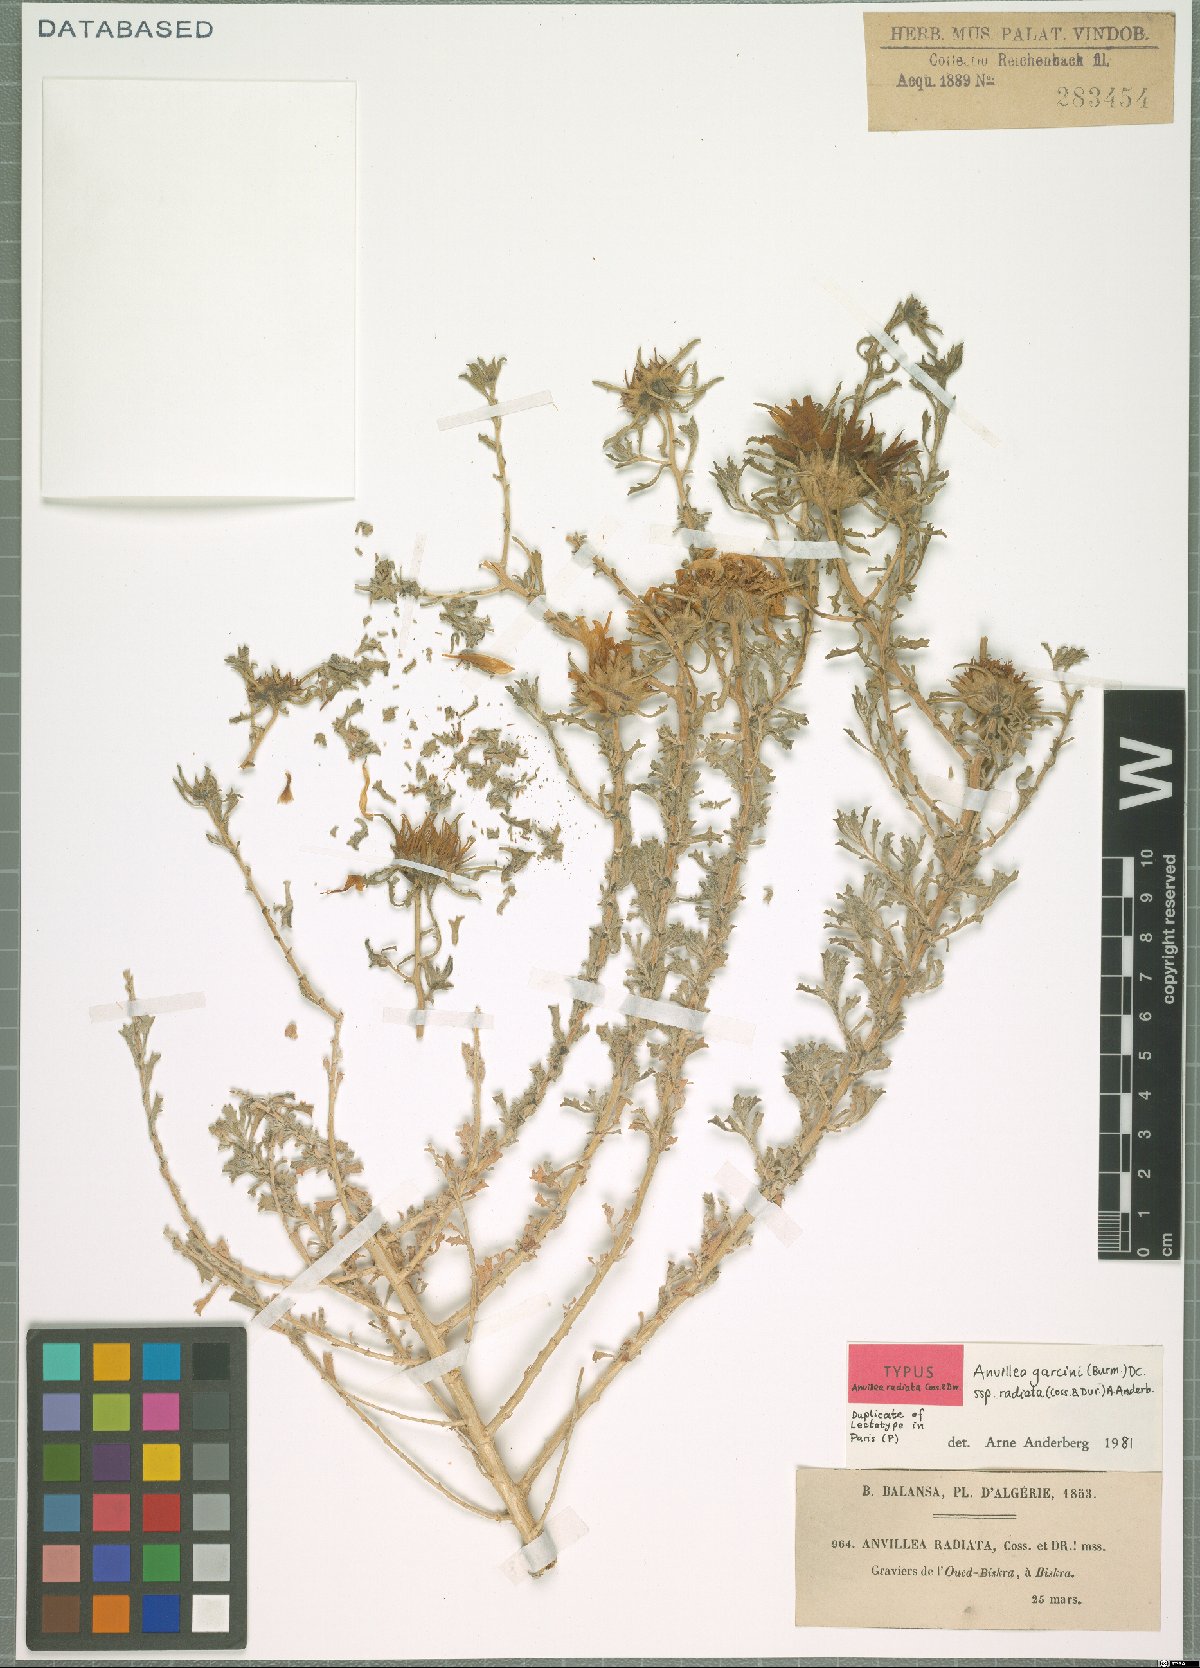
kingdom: Plantae
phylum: Tracheophyta
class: Magnoliopsida
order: Asterales
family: Asteraceae
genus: Anvillea
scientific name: Anvillea garcinii
